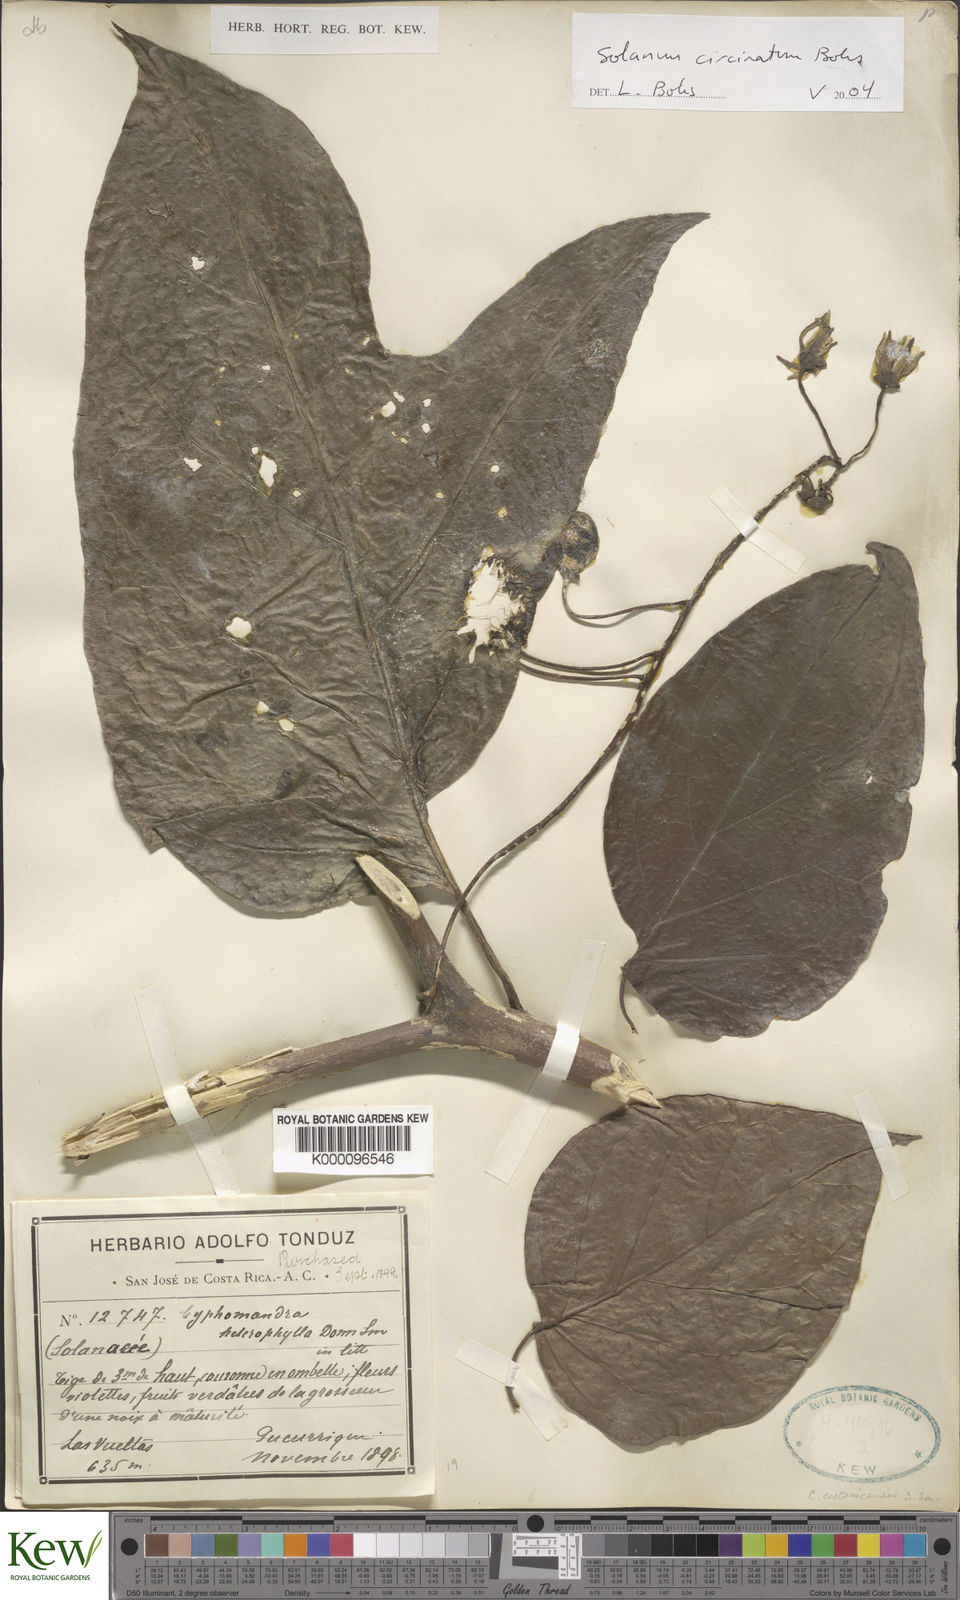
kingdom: Plantae
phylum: Tracheophyta
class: Magnoliopsida
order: Solanales
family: Solanaceae
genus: Solanum
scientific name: Solanum splendens
